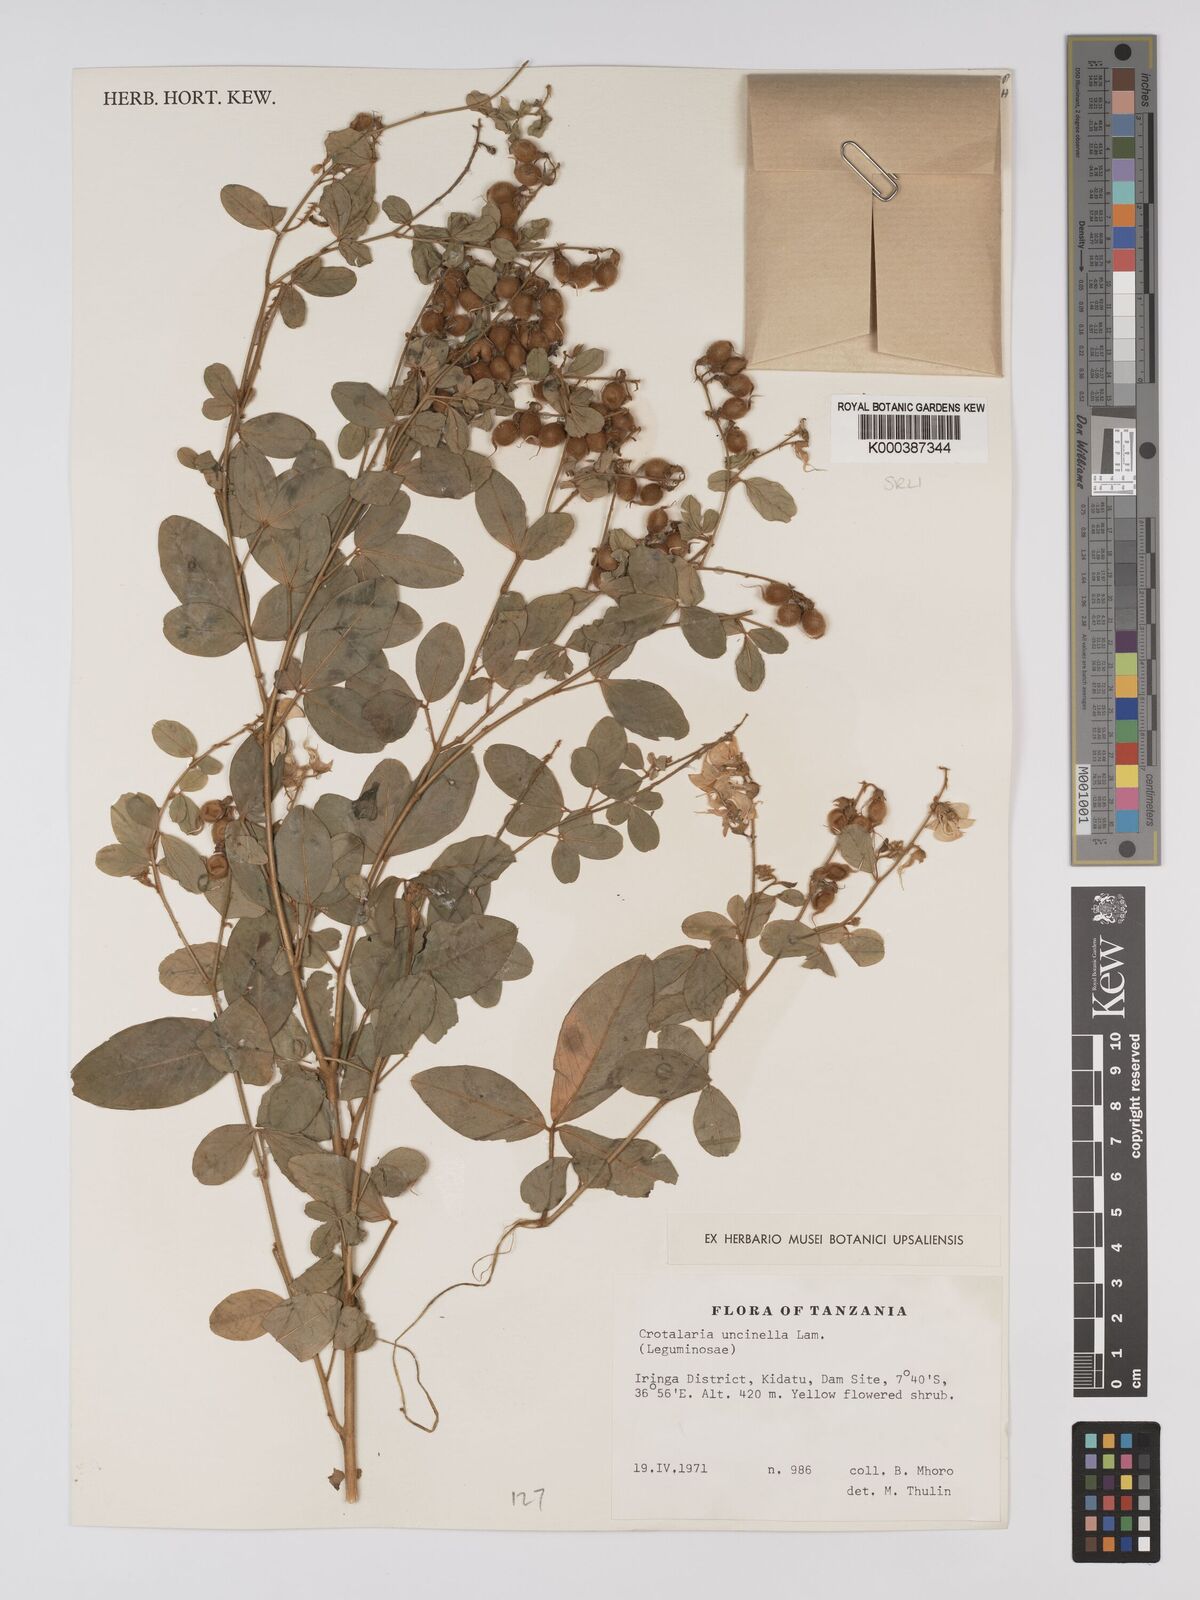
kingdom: Plantae
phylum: Tracheophyta
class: Magnoliopsida
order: Fabales
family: Fabaceae
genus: Crotalaria
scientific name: Crotalaria uncinella
